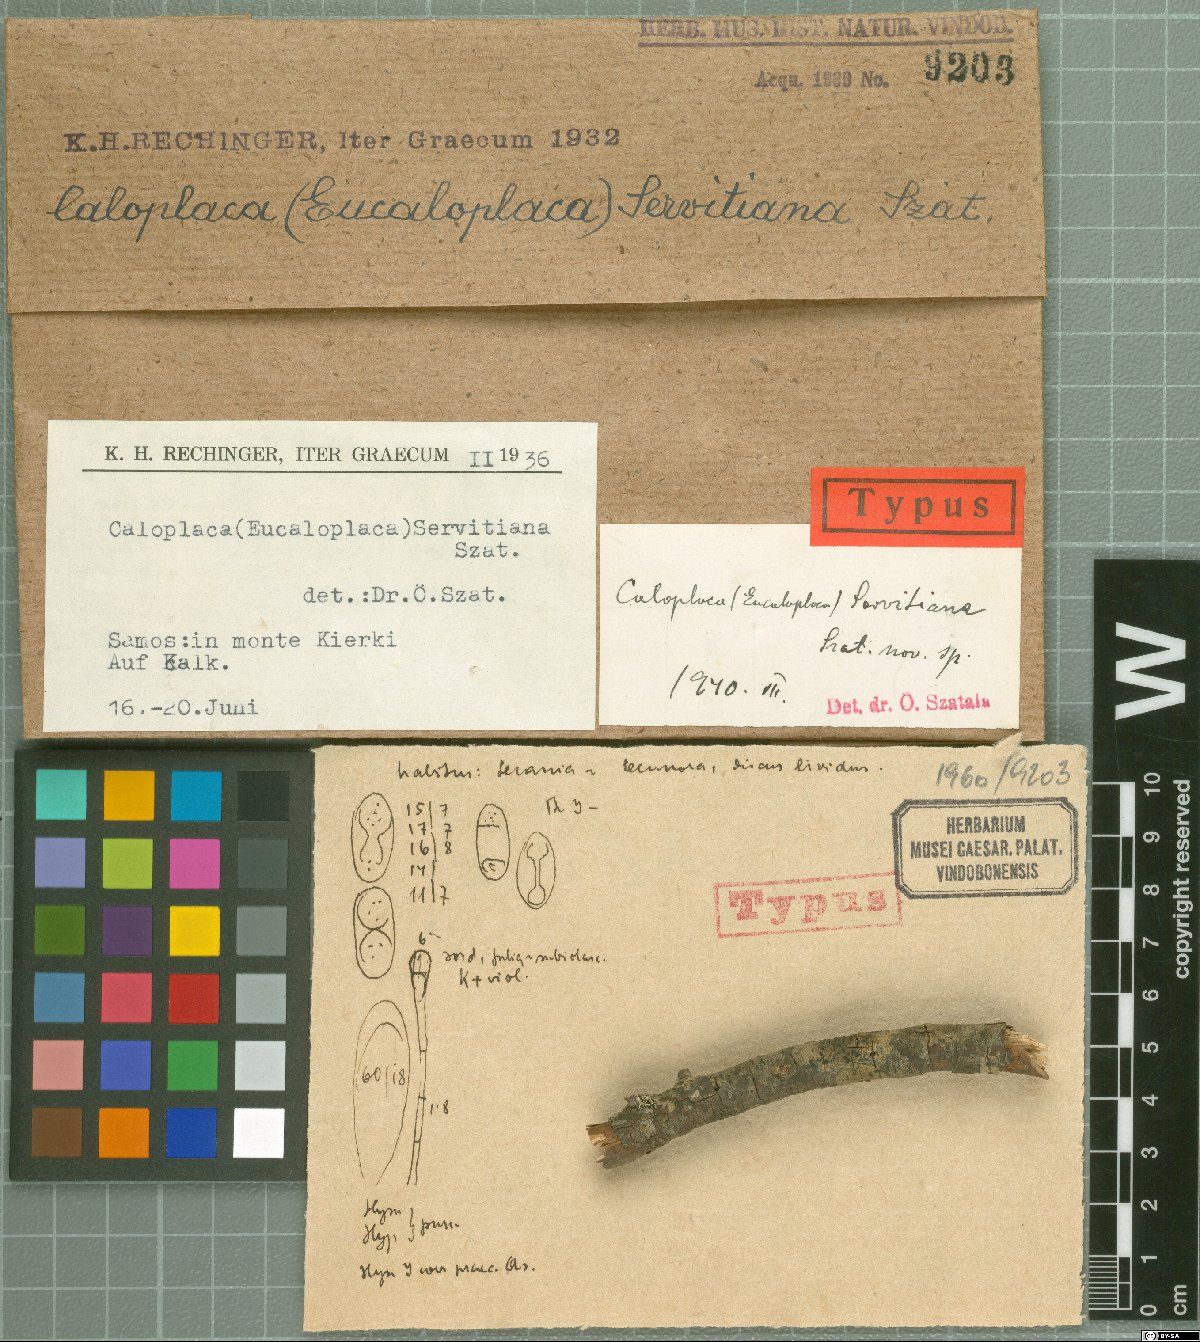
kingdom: Fungi
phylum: Ascomycota
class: Lecanoromycetes
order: Teloschistales
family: Teloschistaceae
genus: Parvoplaca
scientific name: Parvoplaca servitiana
